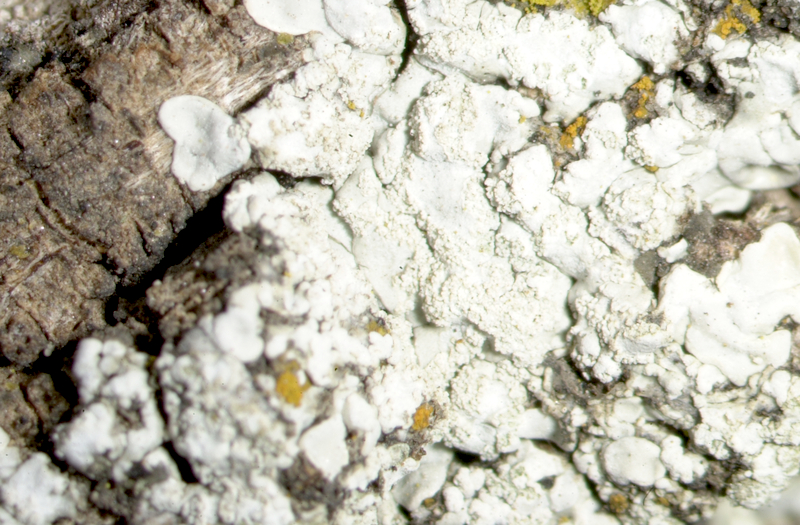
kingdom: Fungi
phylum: Ascomycota
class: Lecanoromycetes
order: Teloschistales
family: Teloschistaceae
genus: Polycauliona
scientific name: Polycauliona candelaria
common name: Shrubby sunburst lichen
